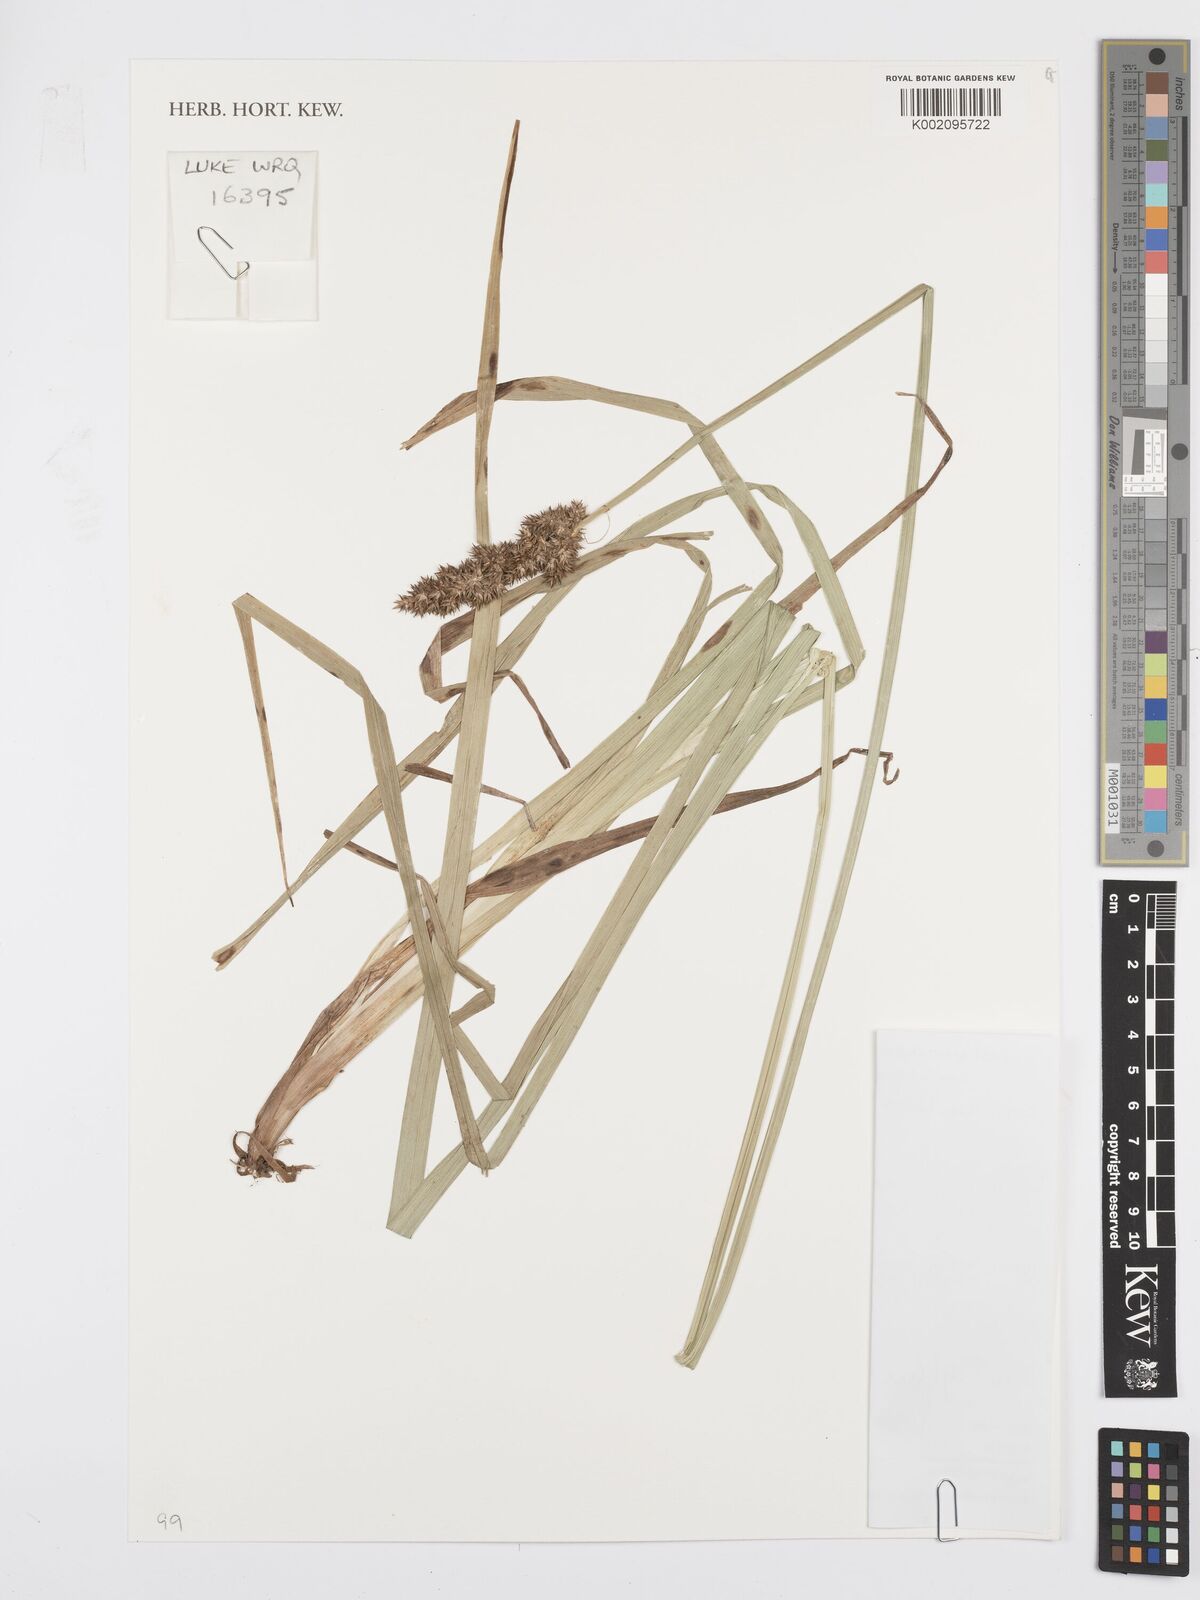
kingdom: Plantae
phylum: Tracheophyta
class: Liliopsida
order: Poales
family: Cyperaceae
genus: Carex
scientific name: Carex conferta
